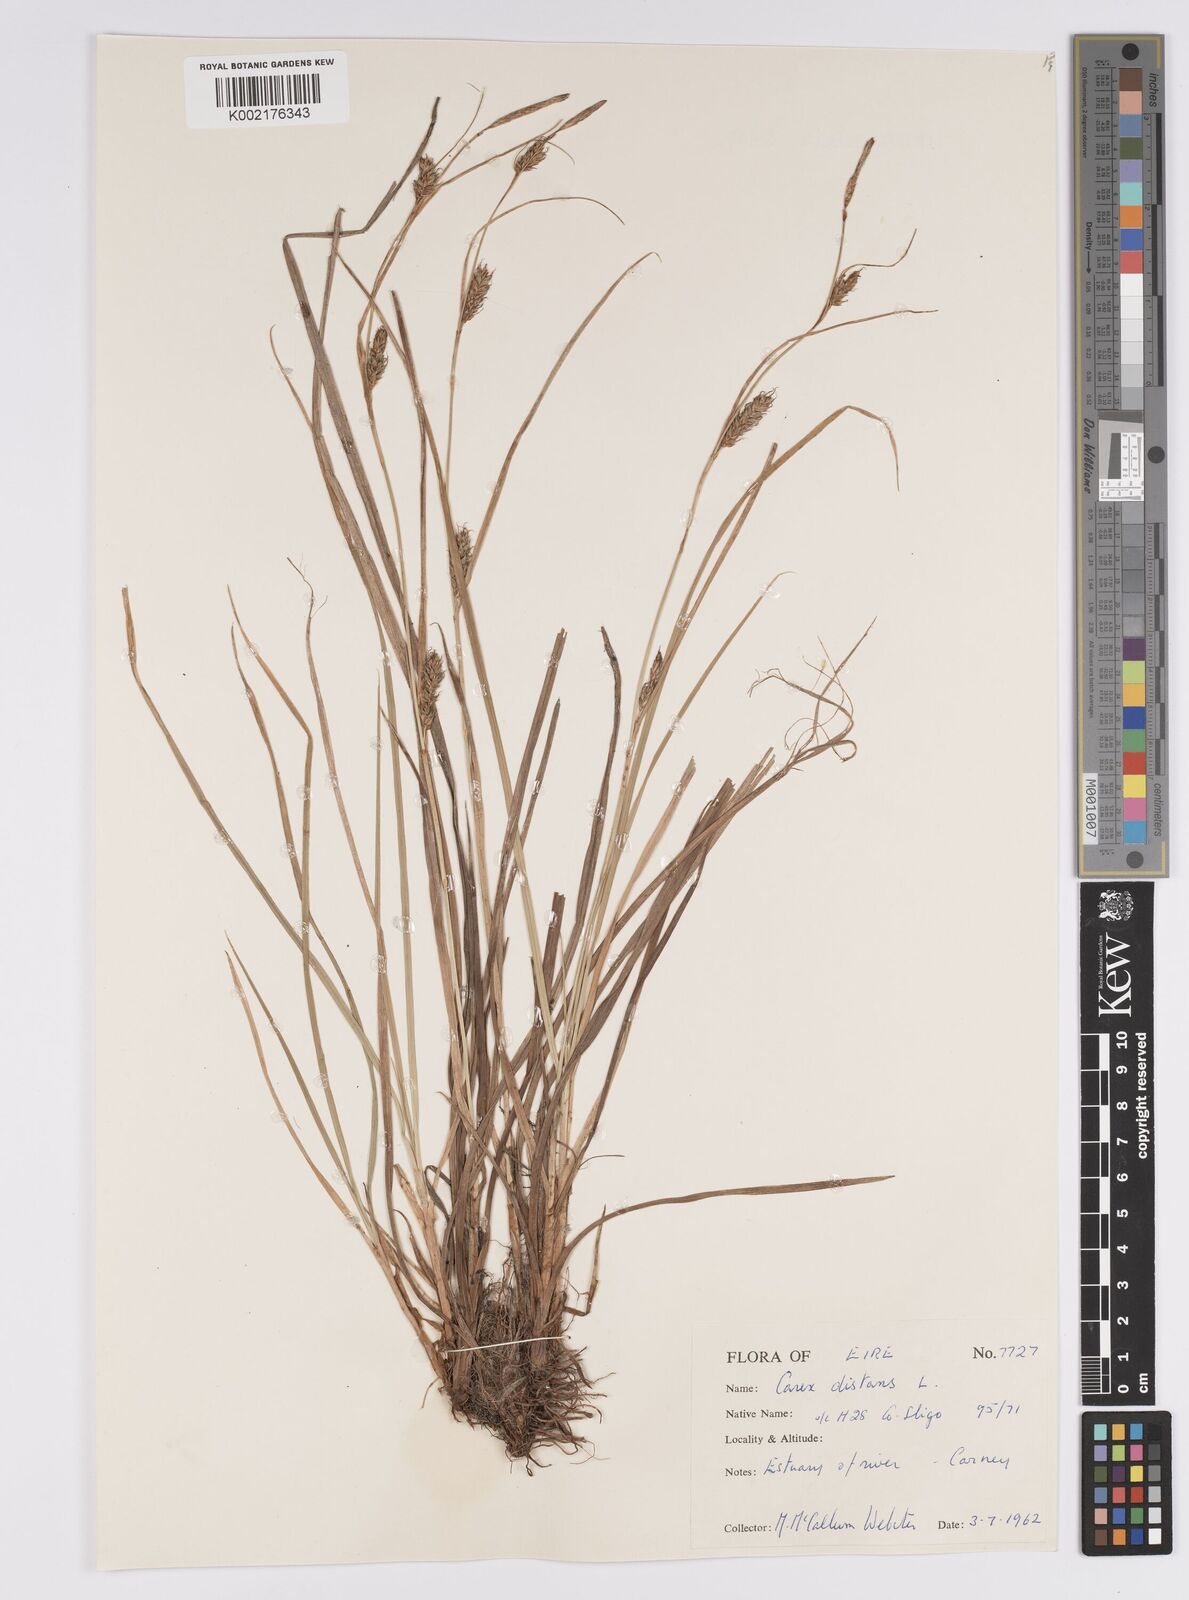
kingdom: Plantae
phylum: Tracheophyta
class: Liliopsida
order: Poales
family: Cyperaceae
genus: Carex
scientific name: Carex distans
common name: Distant sedge
